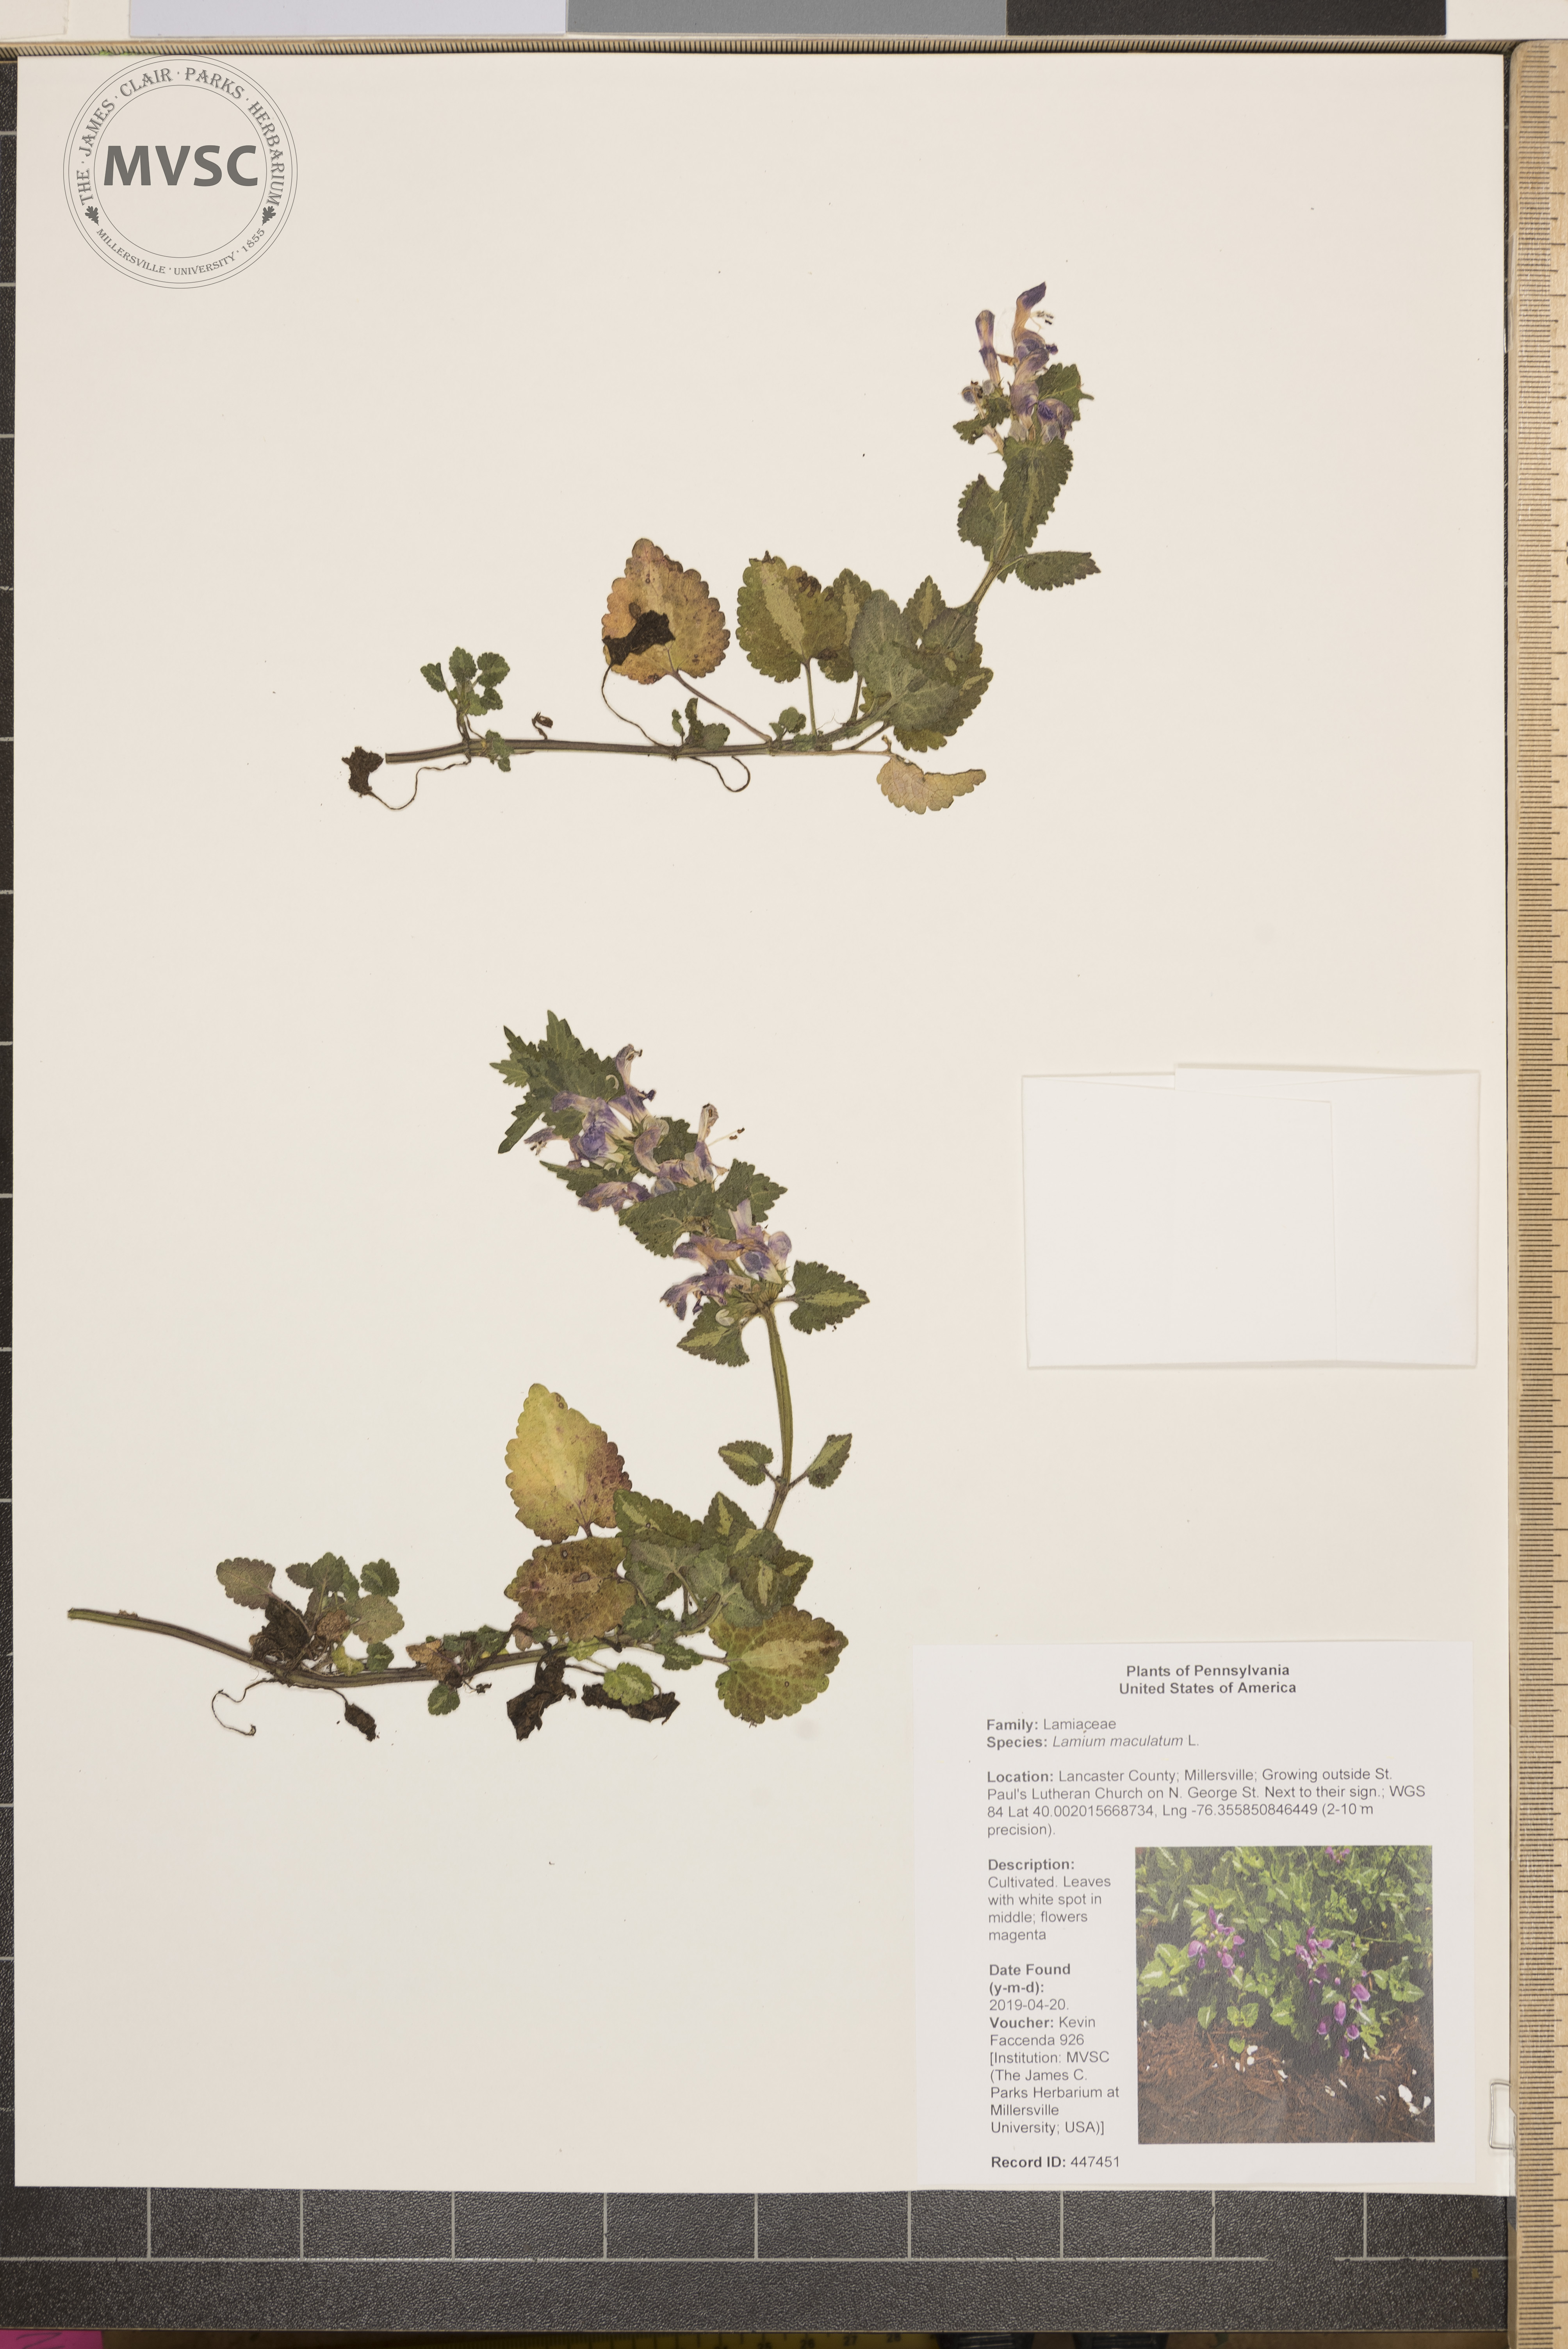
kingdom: Plantae
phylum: Tracheophyta
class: Magnoliopsida
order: Lamiales
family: Lamiaceae
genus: Lamium
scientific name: Lamium maculatum
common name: Spotted dead-nettle
